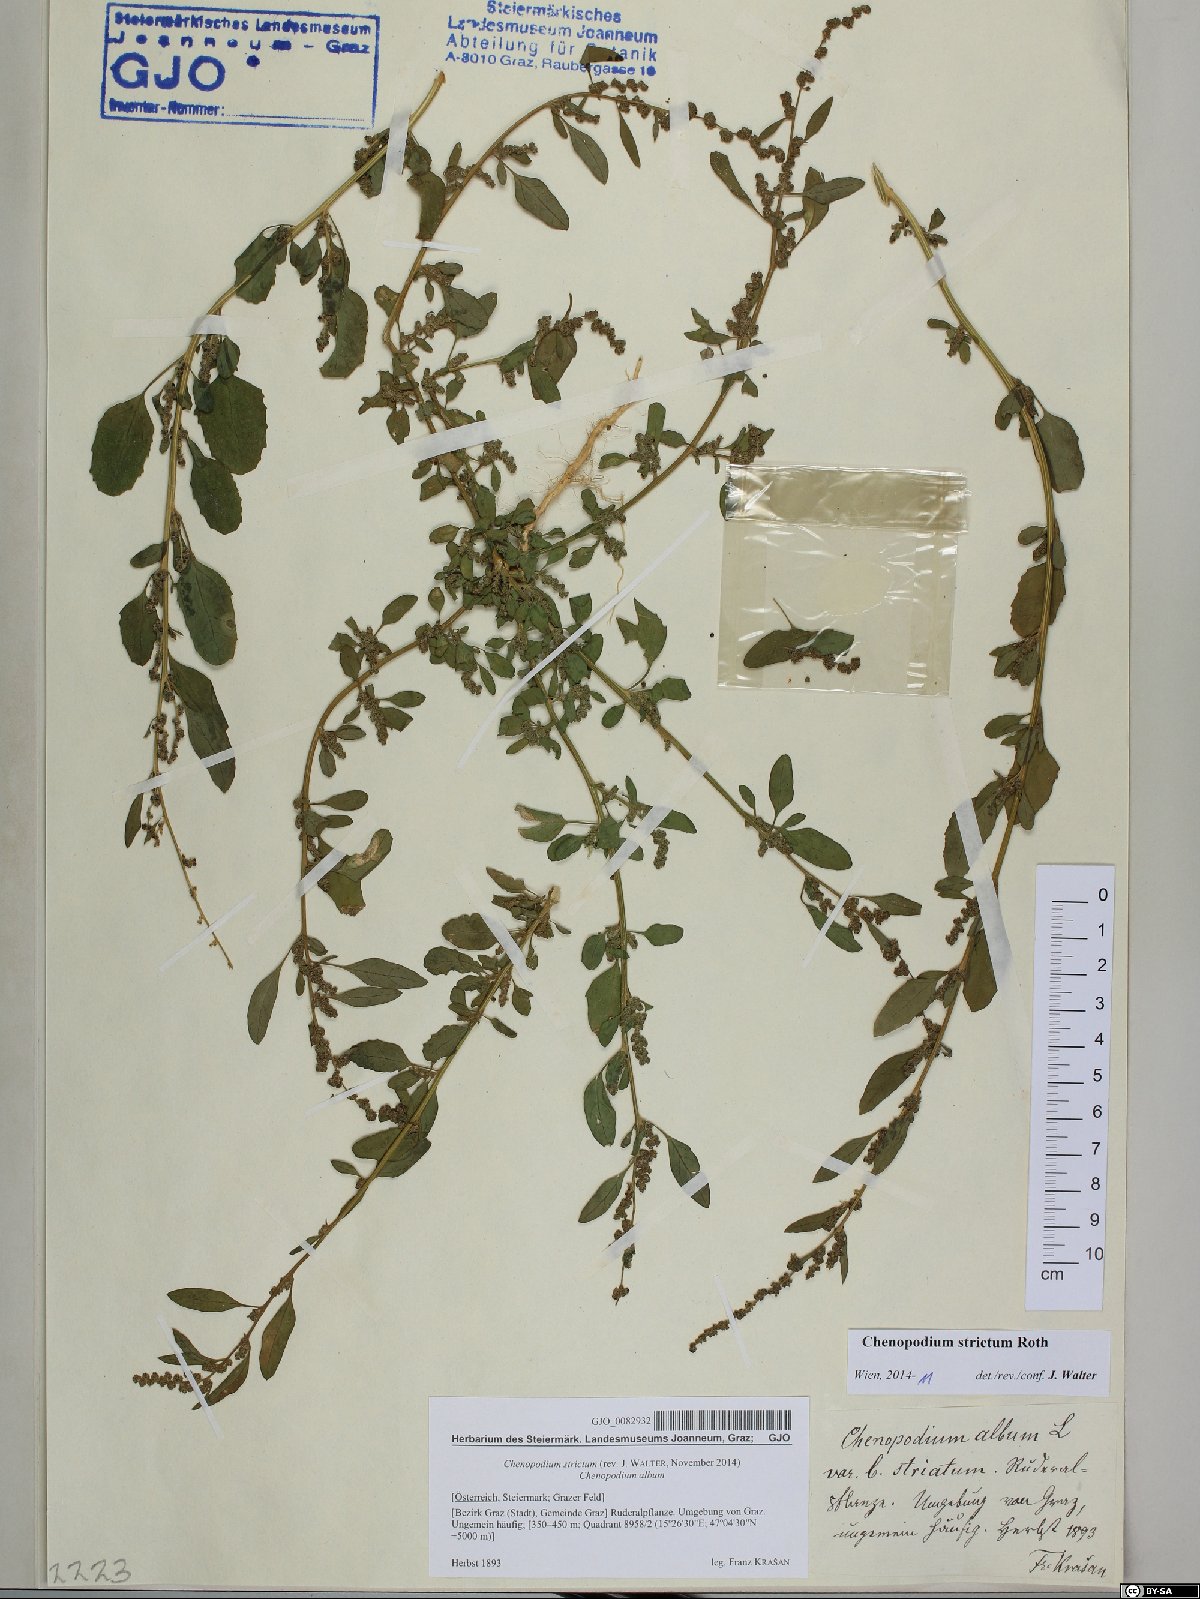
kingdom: Plantae
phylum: Tracheophyta
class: Magnoliopsida
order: Caryophyllales
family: Amaranthaceae
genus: Chenopodium
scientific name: Chenopodium album
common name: Fat-hen
